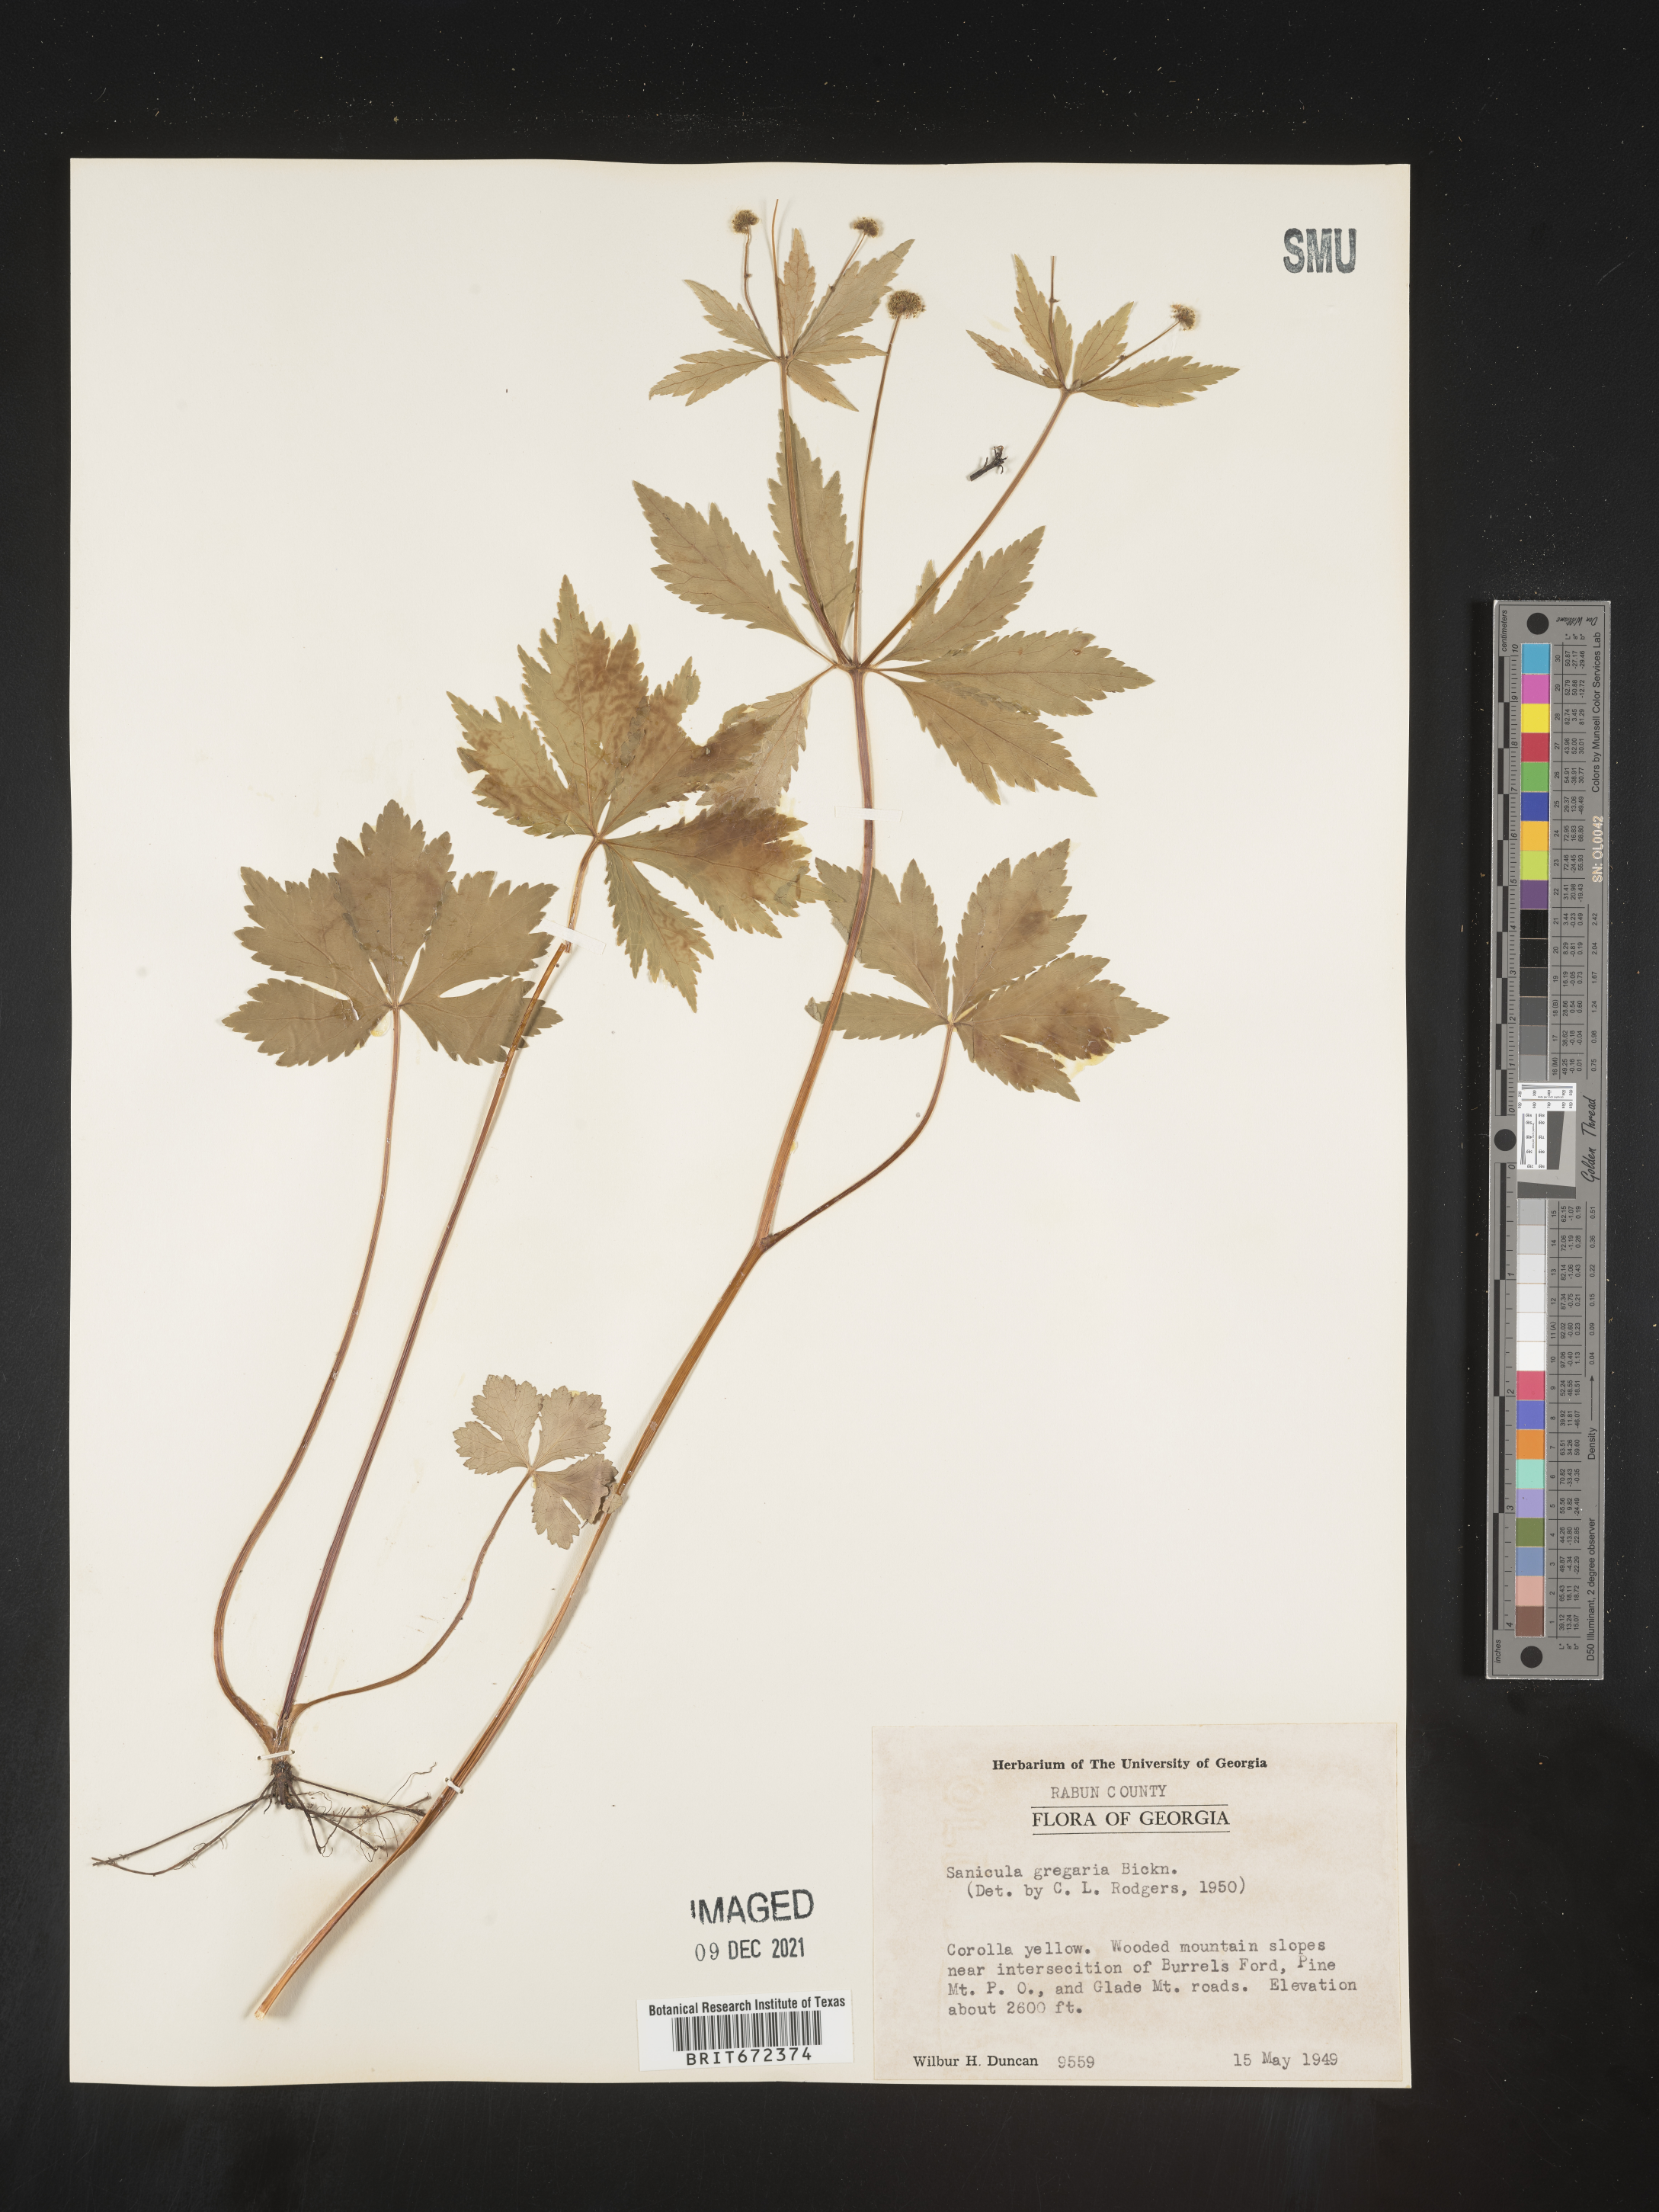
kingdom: Plantae
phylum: Tracheophyta
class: Magnoliopsida
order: Apiales
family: Apiaceae
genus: Sanicula
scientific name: Sanicula odorata
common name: Cluster sanicle
